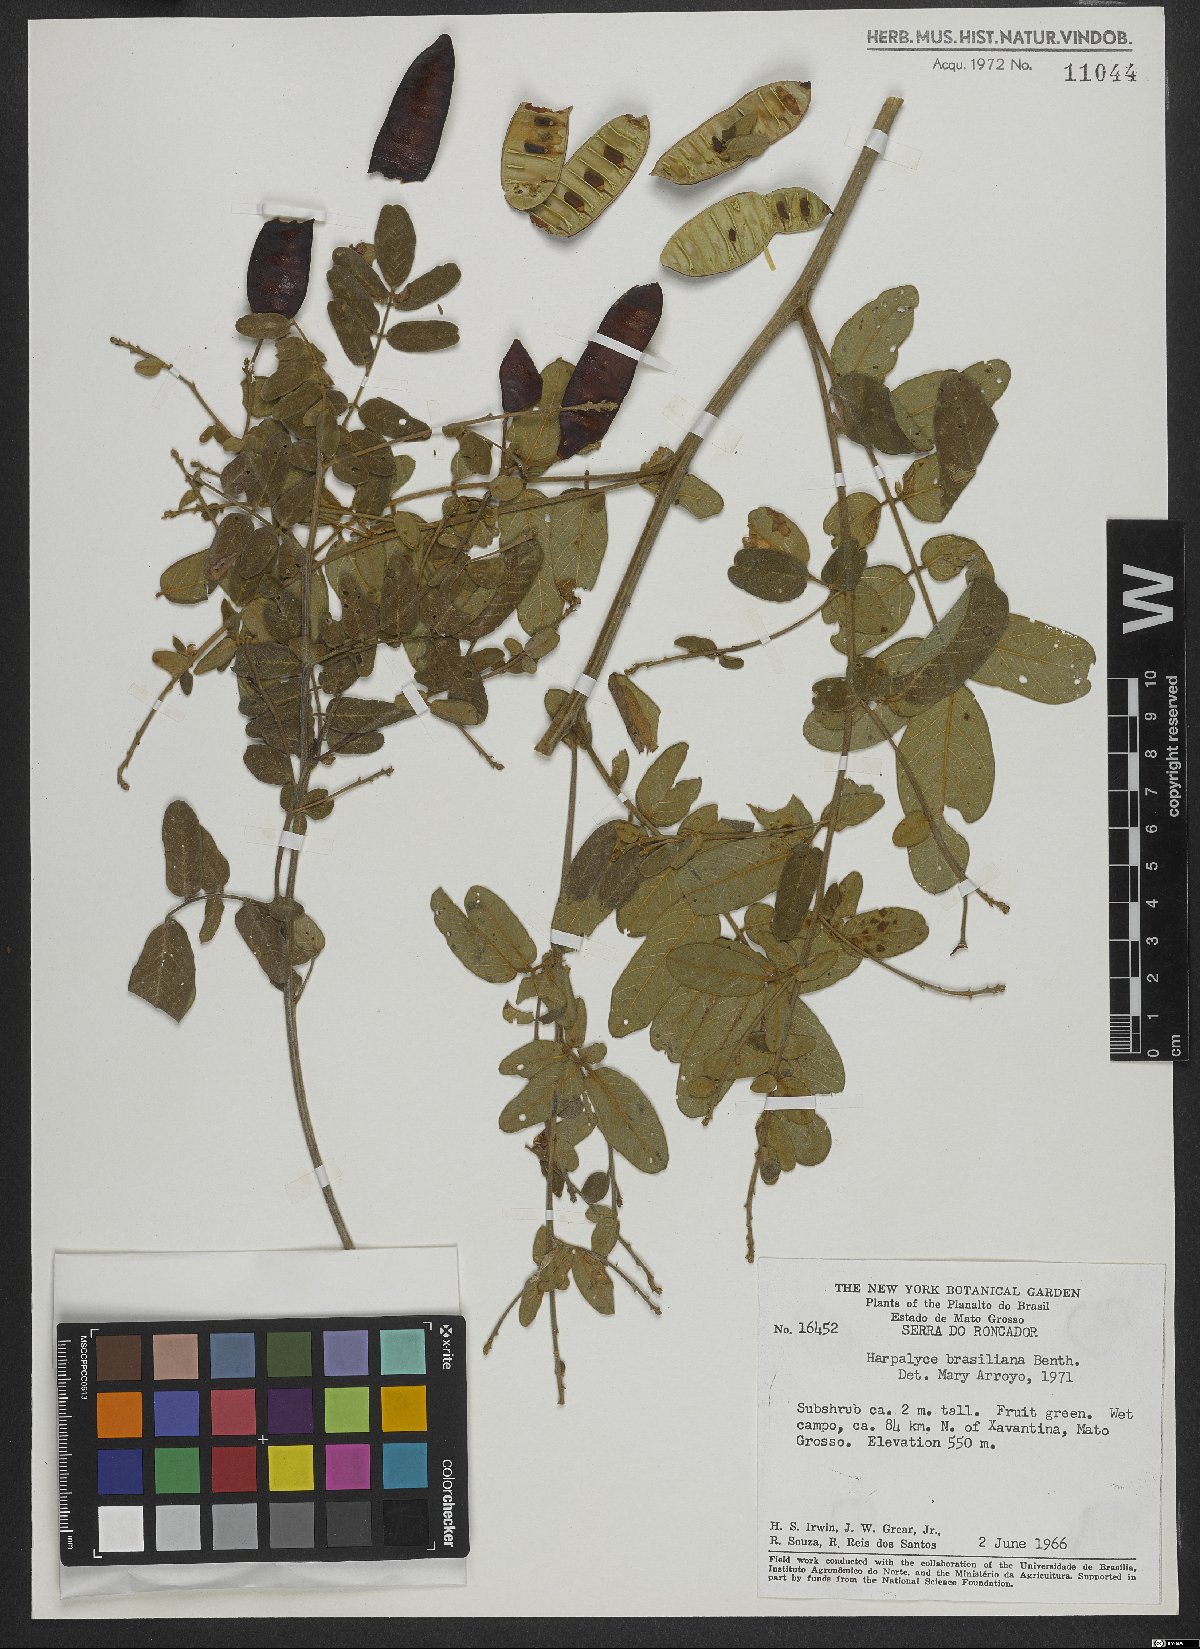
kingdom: Plantae
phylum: Tracheophyta
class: Magnoliopsida
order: Fabales
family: Fabaceae
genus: Harpalyce
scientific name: Harpalyce brasiliana
